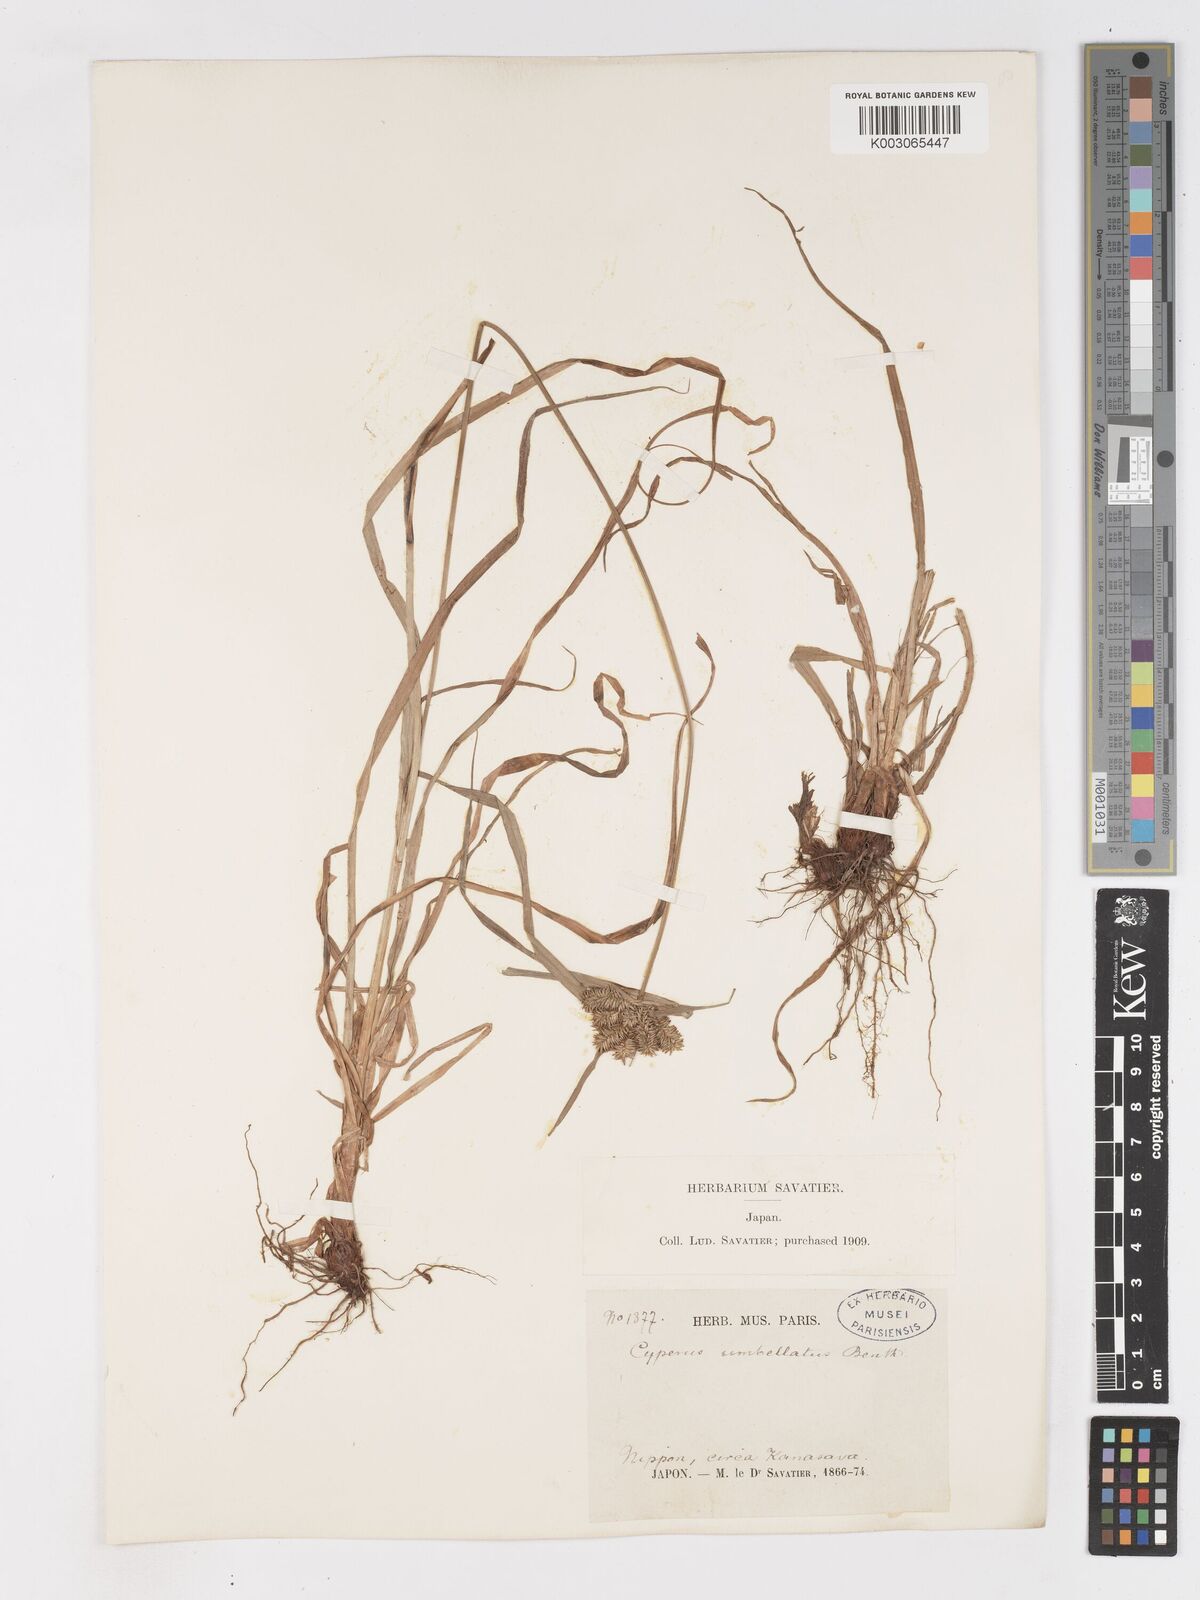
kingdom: Plantae
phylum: Tracheophyta
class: Liliopsida
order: Poales
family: Cyperaceae
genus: Cyperus
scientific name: Cyperus cyperinus
